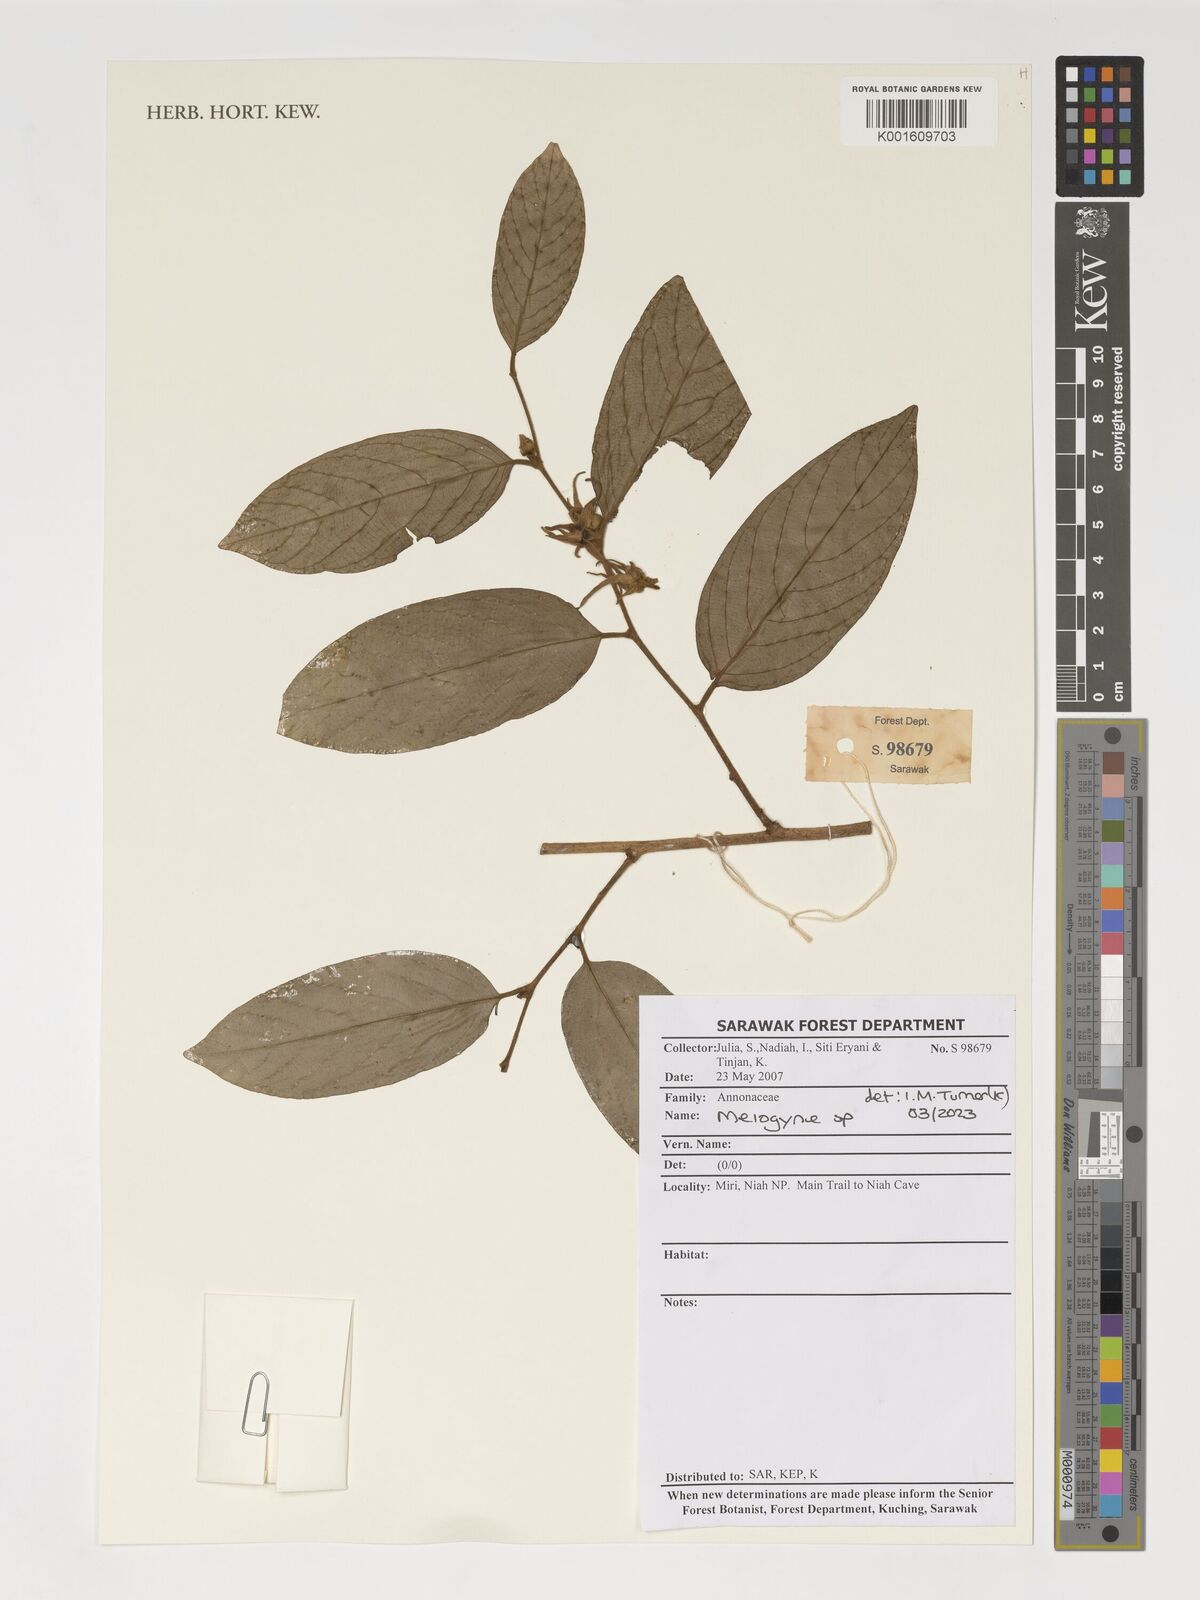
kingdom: Plantae
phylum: Tracheophyta
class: Magnoliopsida
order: Magnoliales
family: Annonaceae
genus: Meiogyne
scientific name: Meiogyne
